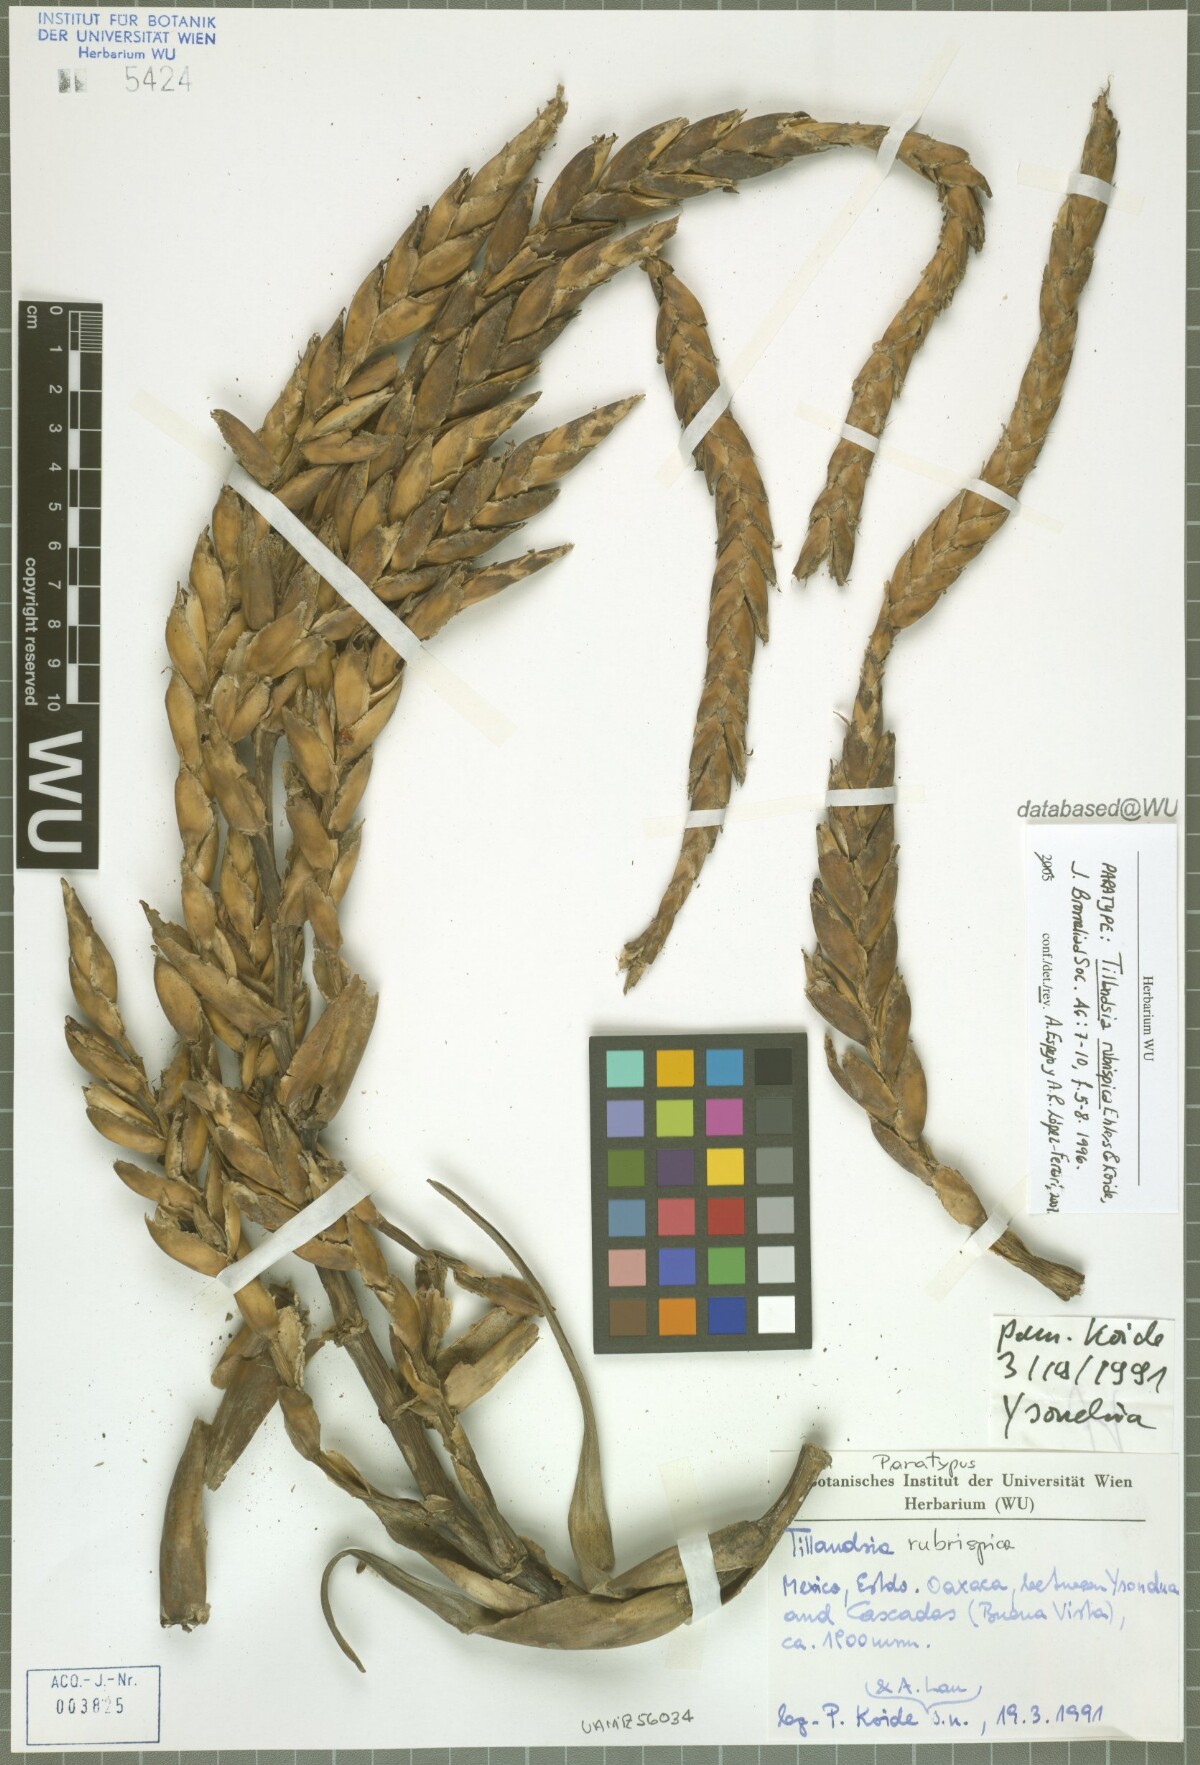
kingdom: Plantae
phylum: Tracheophyta
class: Liliopsida
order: Poales
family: Bromeliaceae
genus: Tillandsia
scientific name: Tillandsia rubrispica
